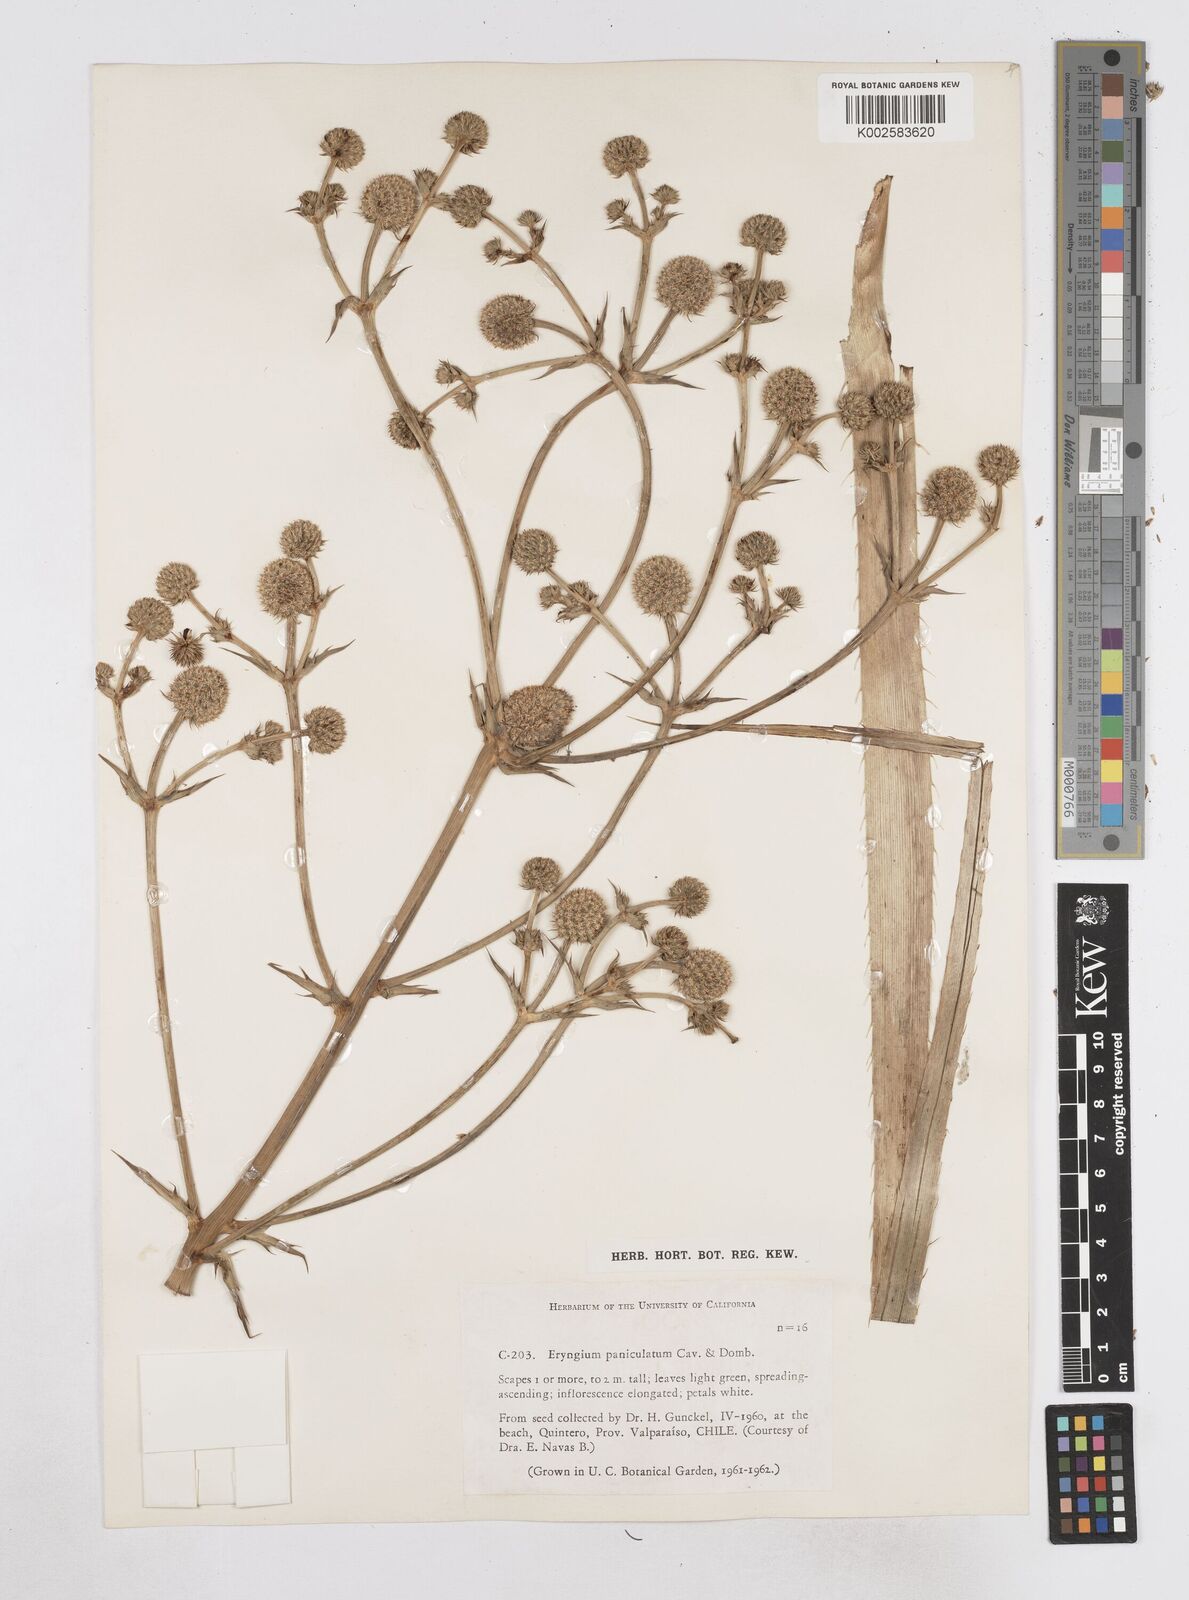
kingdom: Plantae
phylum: Tracheophyta
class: Magnoliopsida
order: Apiales
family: Apiaceae
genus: Eryngium
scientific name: Eryngium humboldtii
